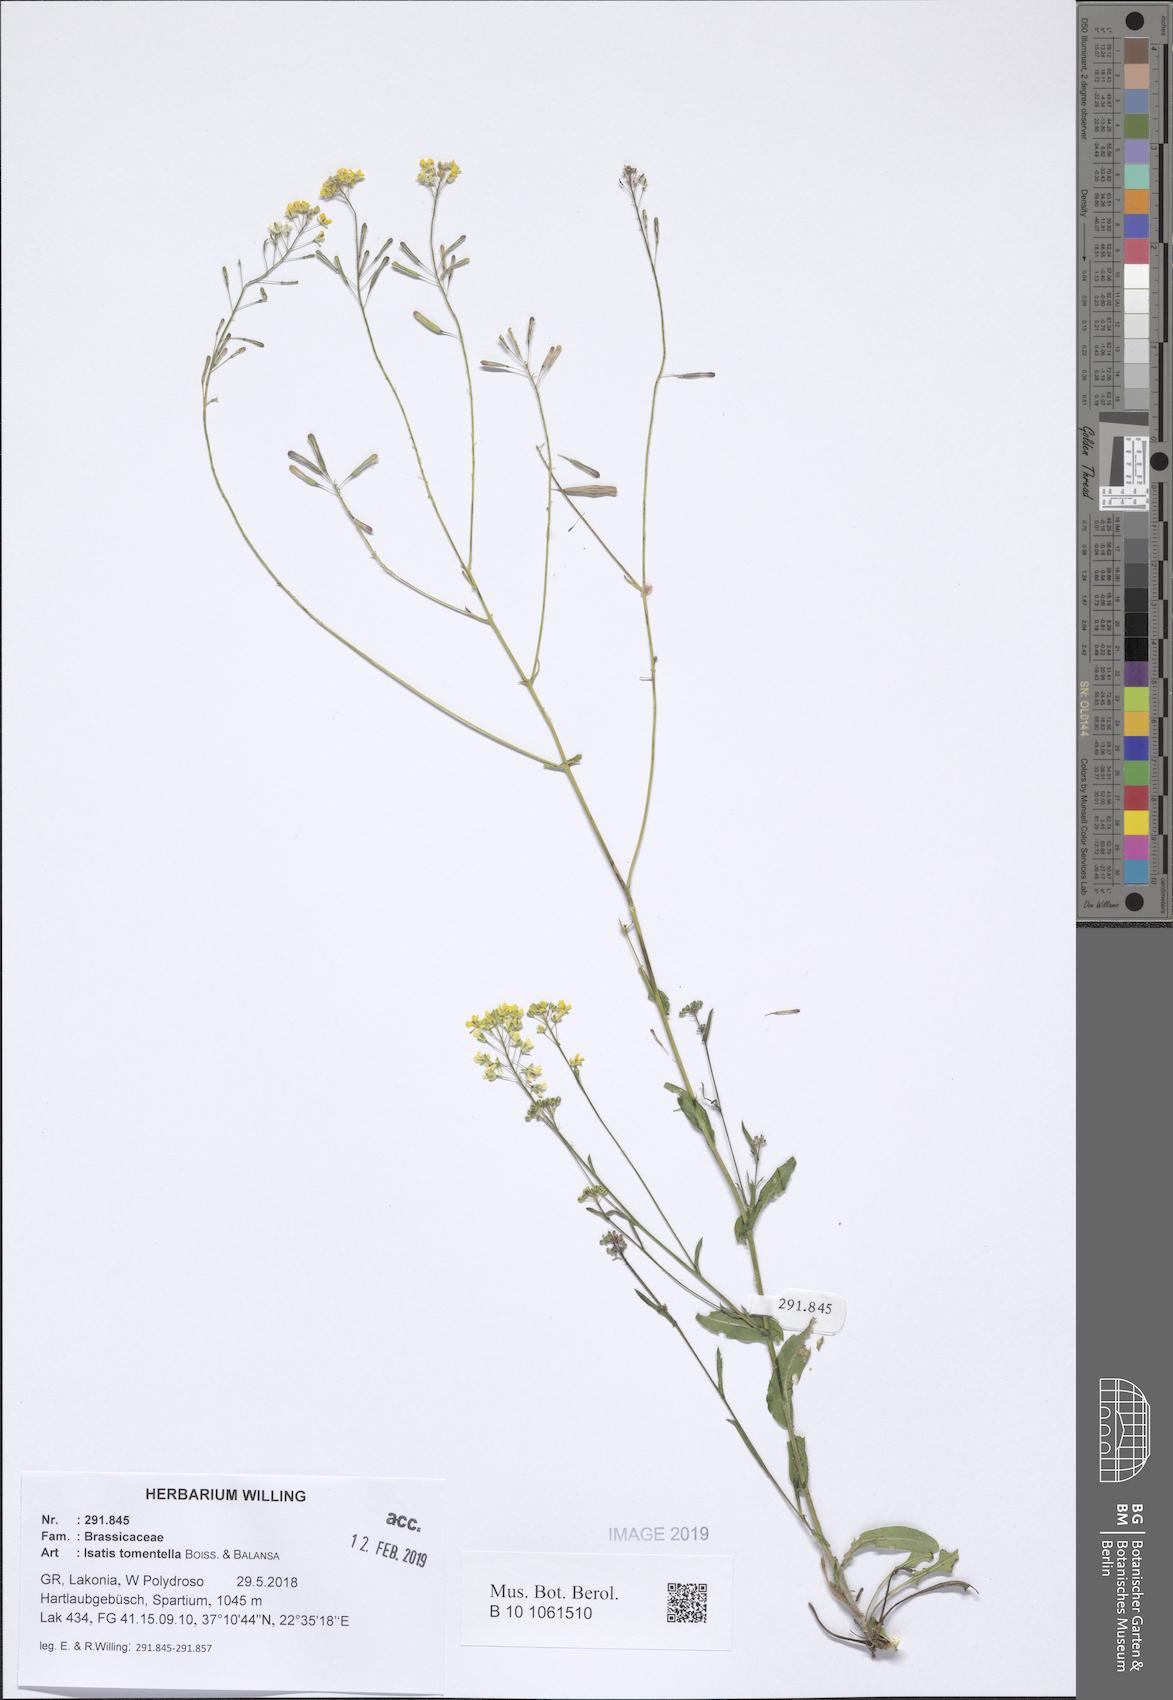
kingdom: Plantae
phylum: Tracheophyta
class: Magnoliopsida
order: Brassicales
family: Brassicaceae
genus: Isatis
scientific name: Isatis tomentella
